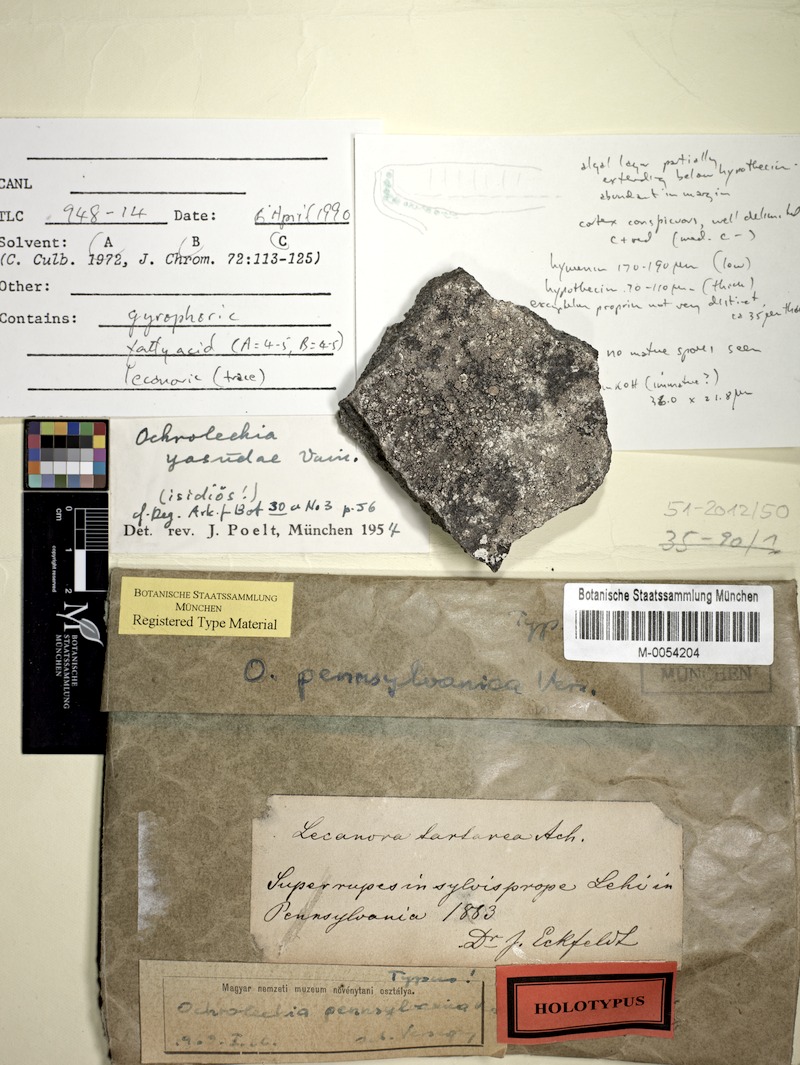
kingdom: Fungi
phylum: Ascomycota
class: Lecanoromycetes
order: Pertusariales
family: Ochrolechiaceae
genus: Ochrolechia
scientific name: Ochrolechia yasudae
